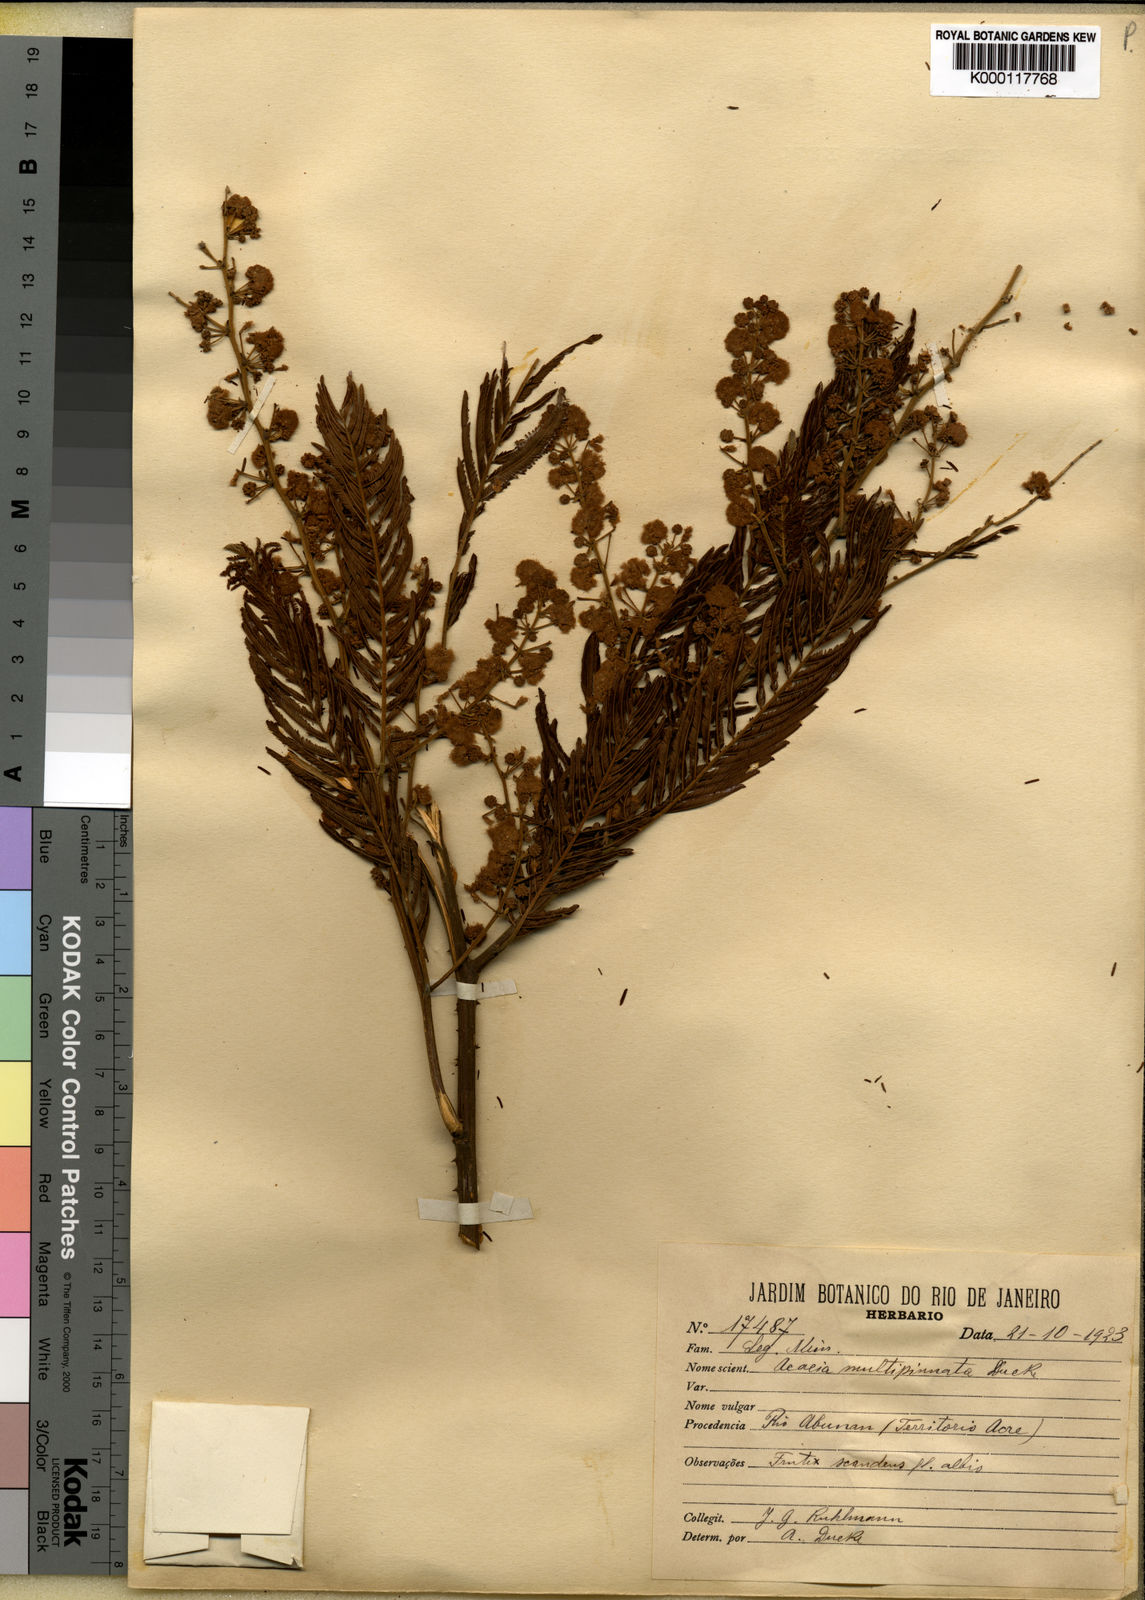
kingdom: Plantae
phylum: Tracheophyta
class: Magnoliopsida
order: Fabales
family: Fabaceae
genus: Senegalia
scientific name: Senegalia paniculata
